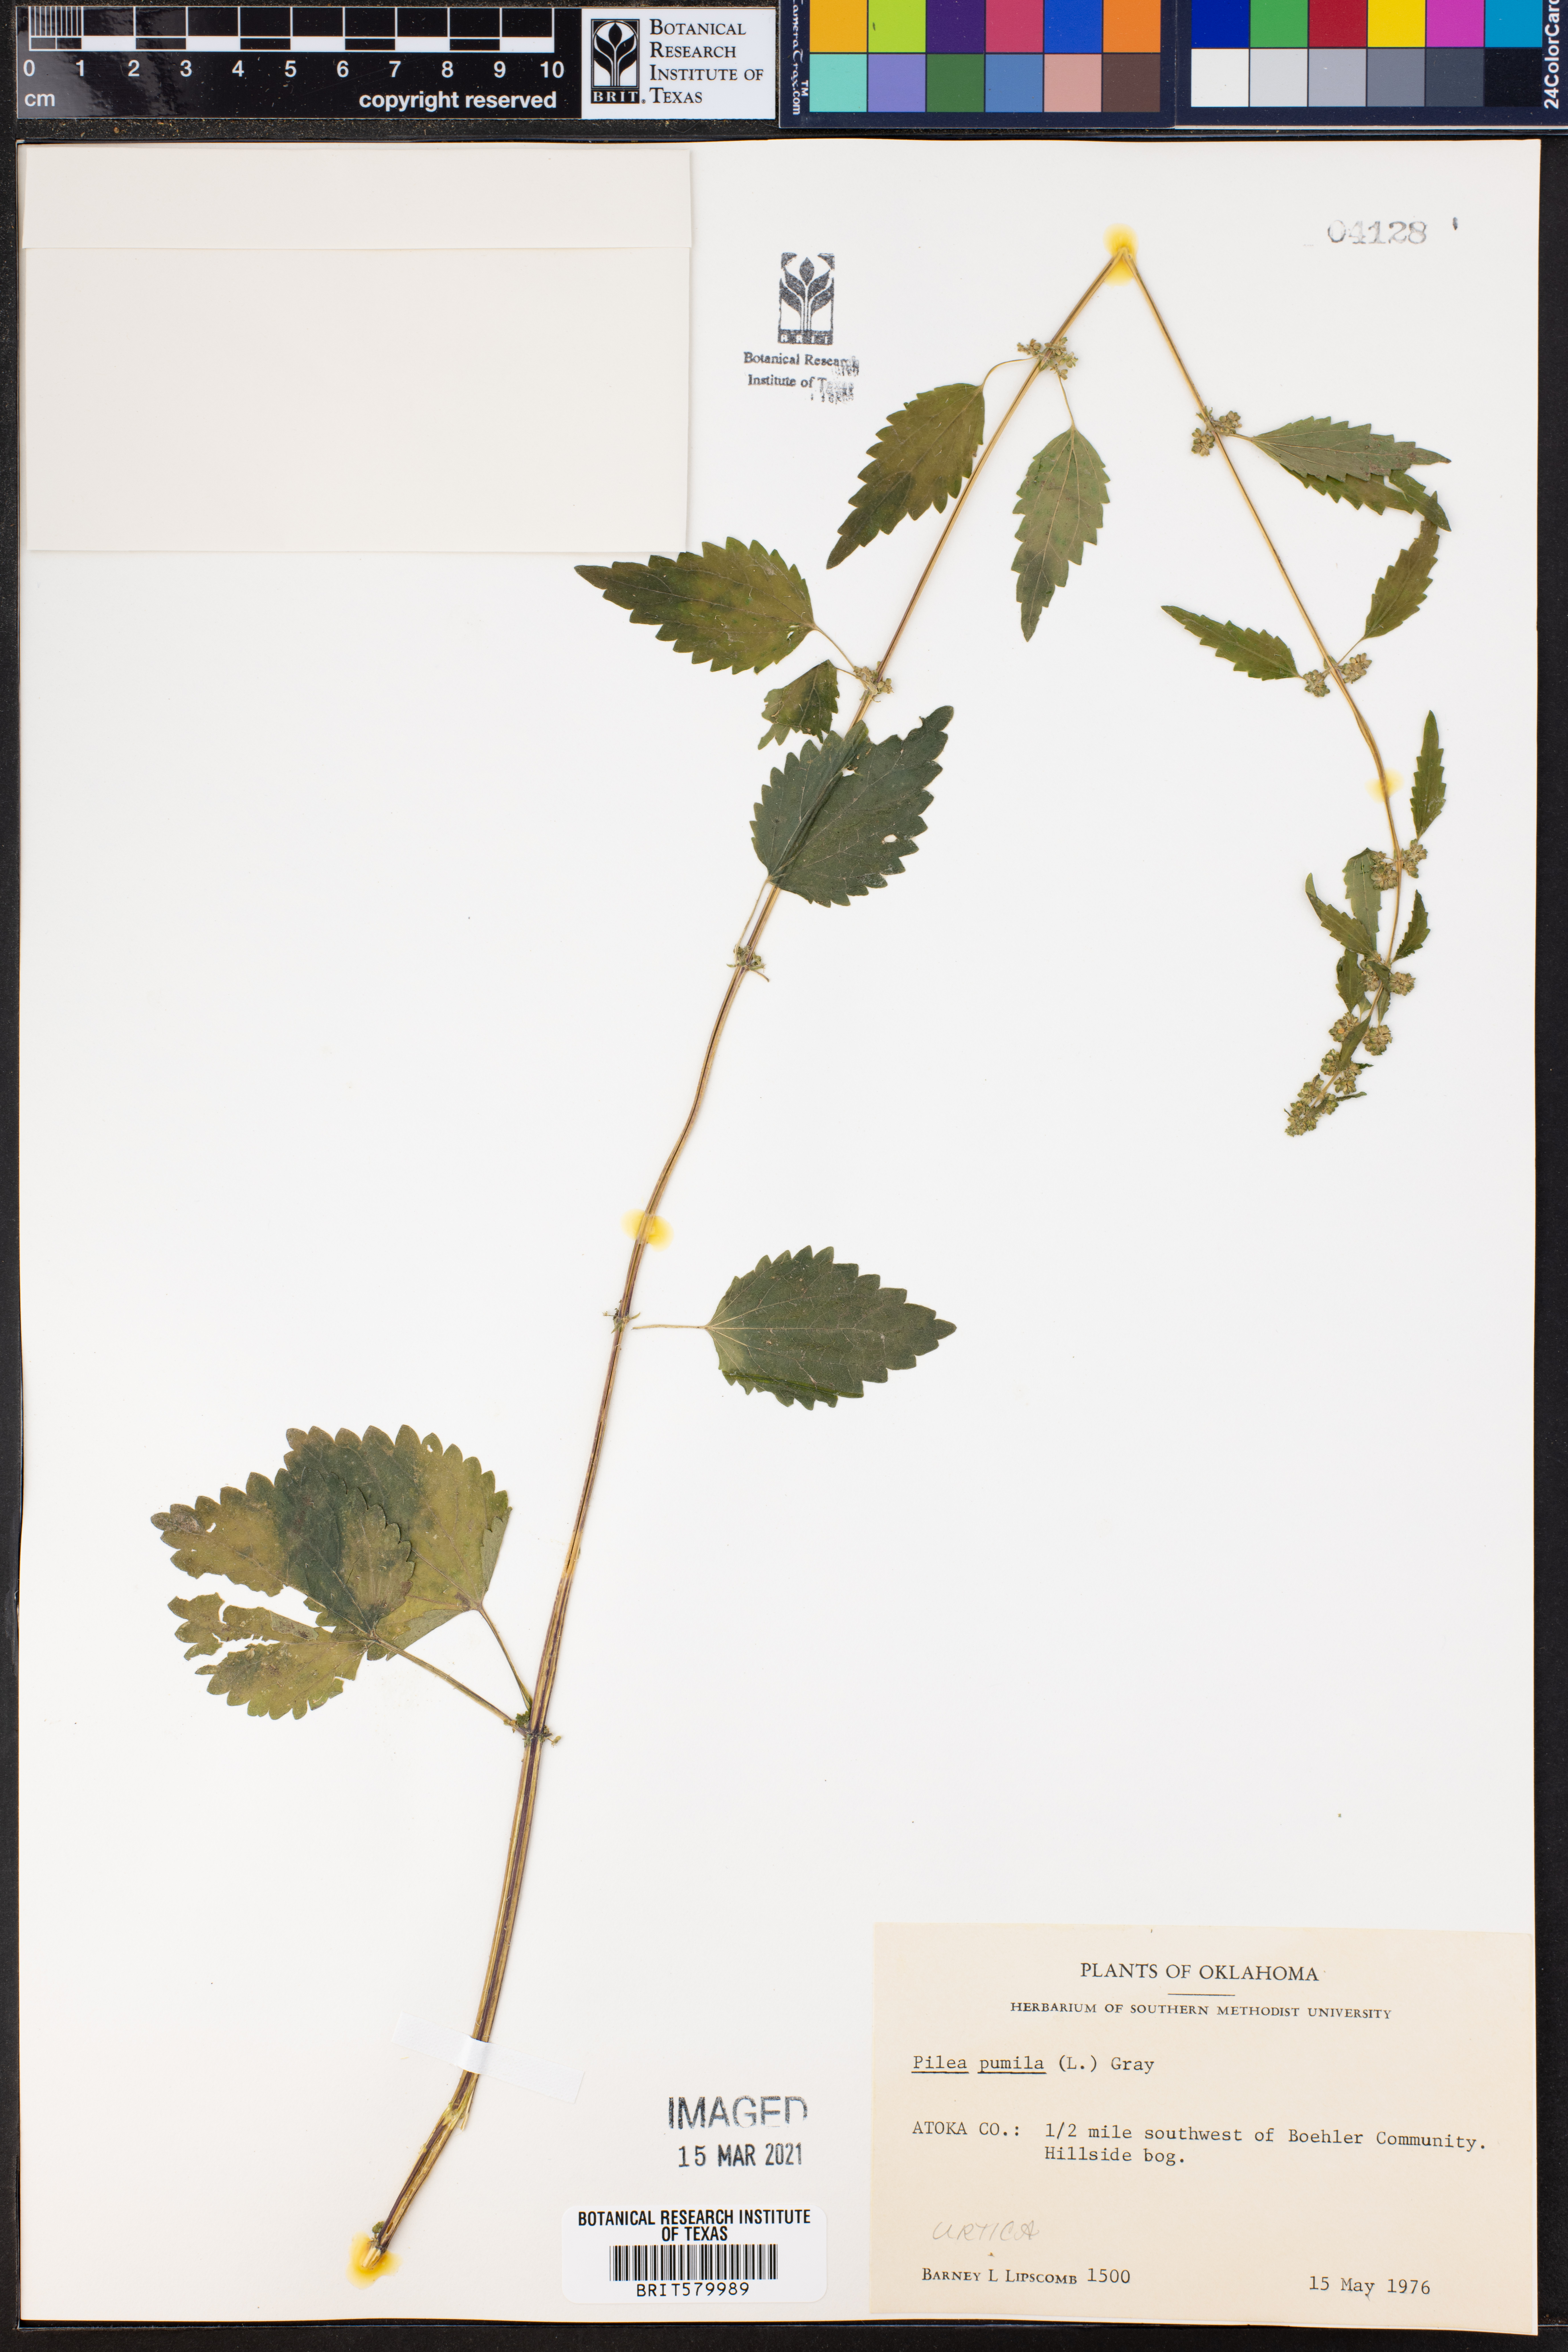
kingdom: Plantae
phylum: Tracheophyta
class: Magnoliopsida
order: Rosales
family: Urticaceae
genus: Pilea
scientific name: Pilea pumila
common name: Clearweed
